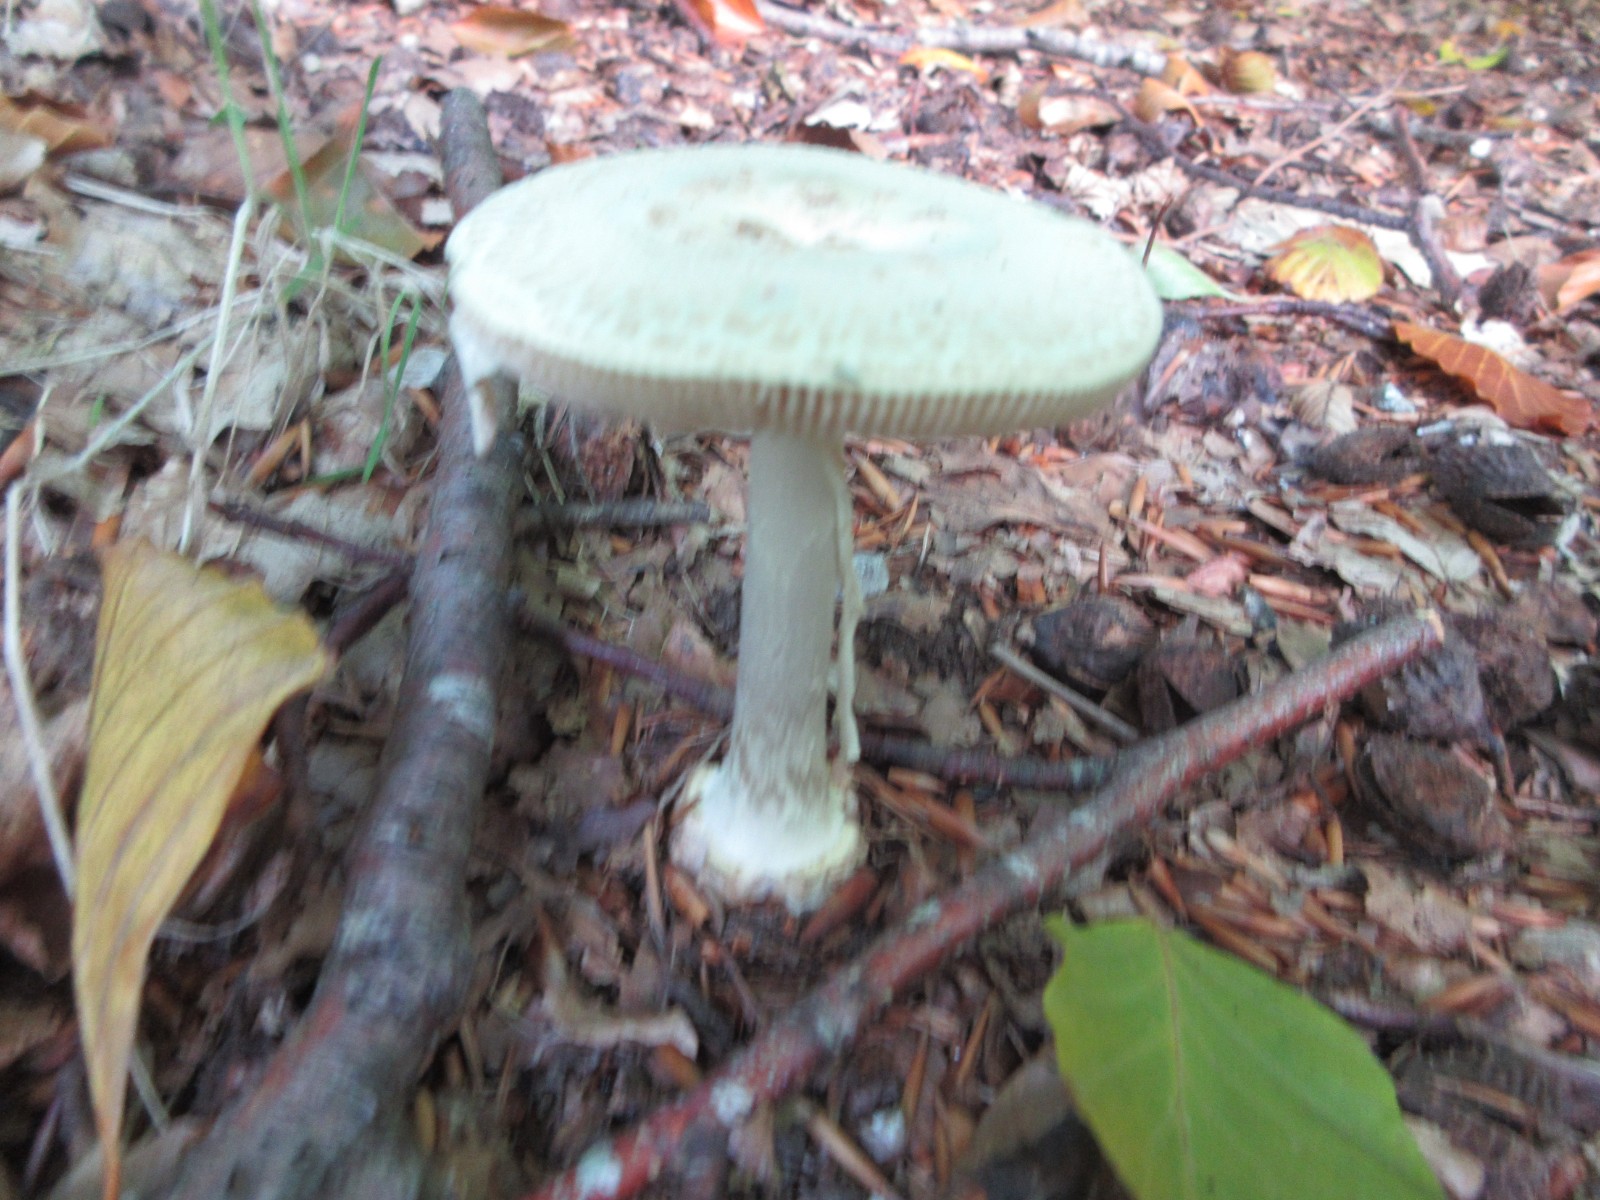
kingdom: Fungi
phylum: Basidiomycota
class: Agaricomycetes
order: Agaricales
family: Amanitaceae
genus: Amanita
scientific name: Amanita citrina
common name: kugleknoldet fluesvamp
